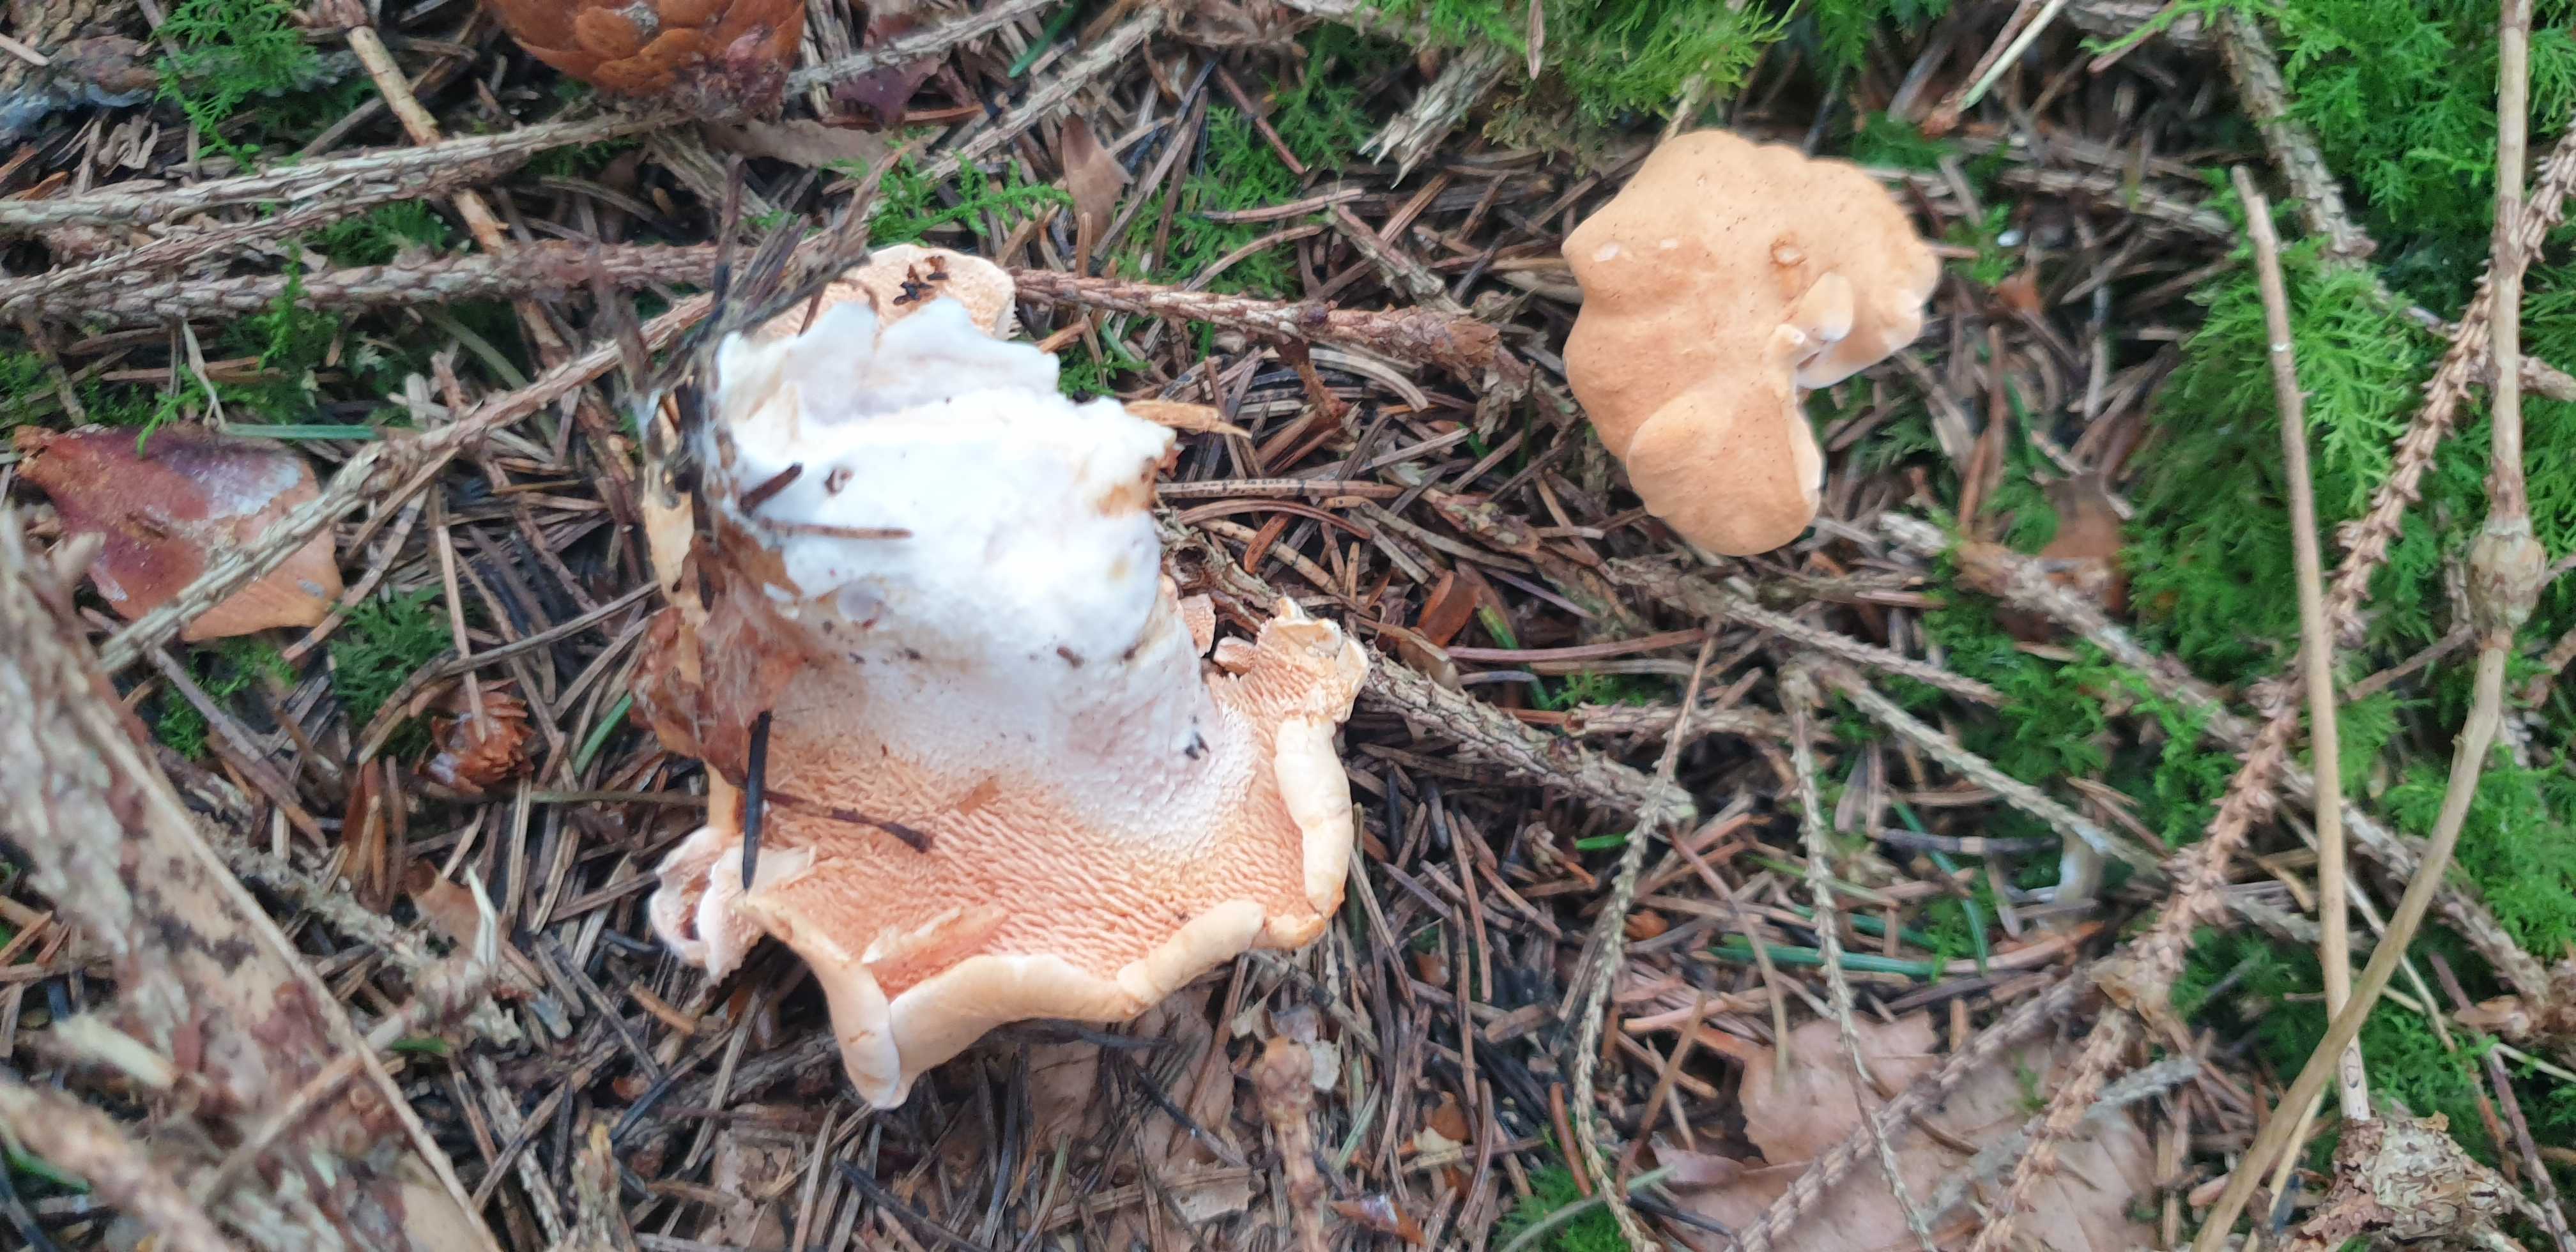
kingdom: Fungi
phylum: Basidiomycota
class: Agaricomycetes
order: Cantharellales
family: Hydnaceae
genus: Hydnum
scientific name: Hydnum
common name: pigsvamp
